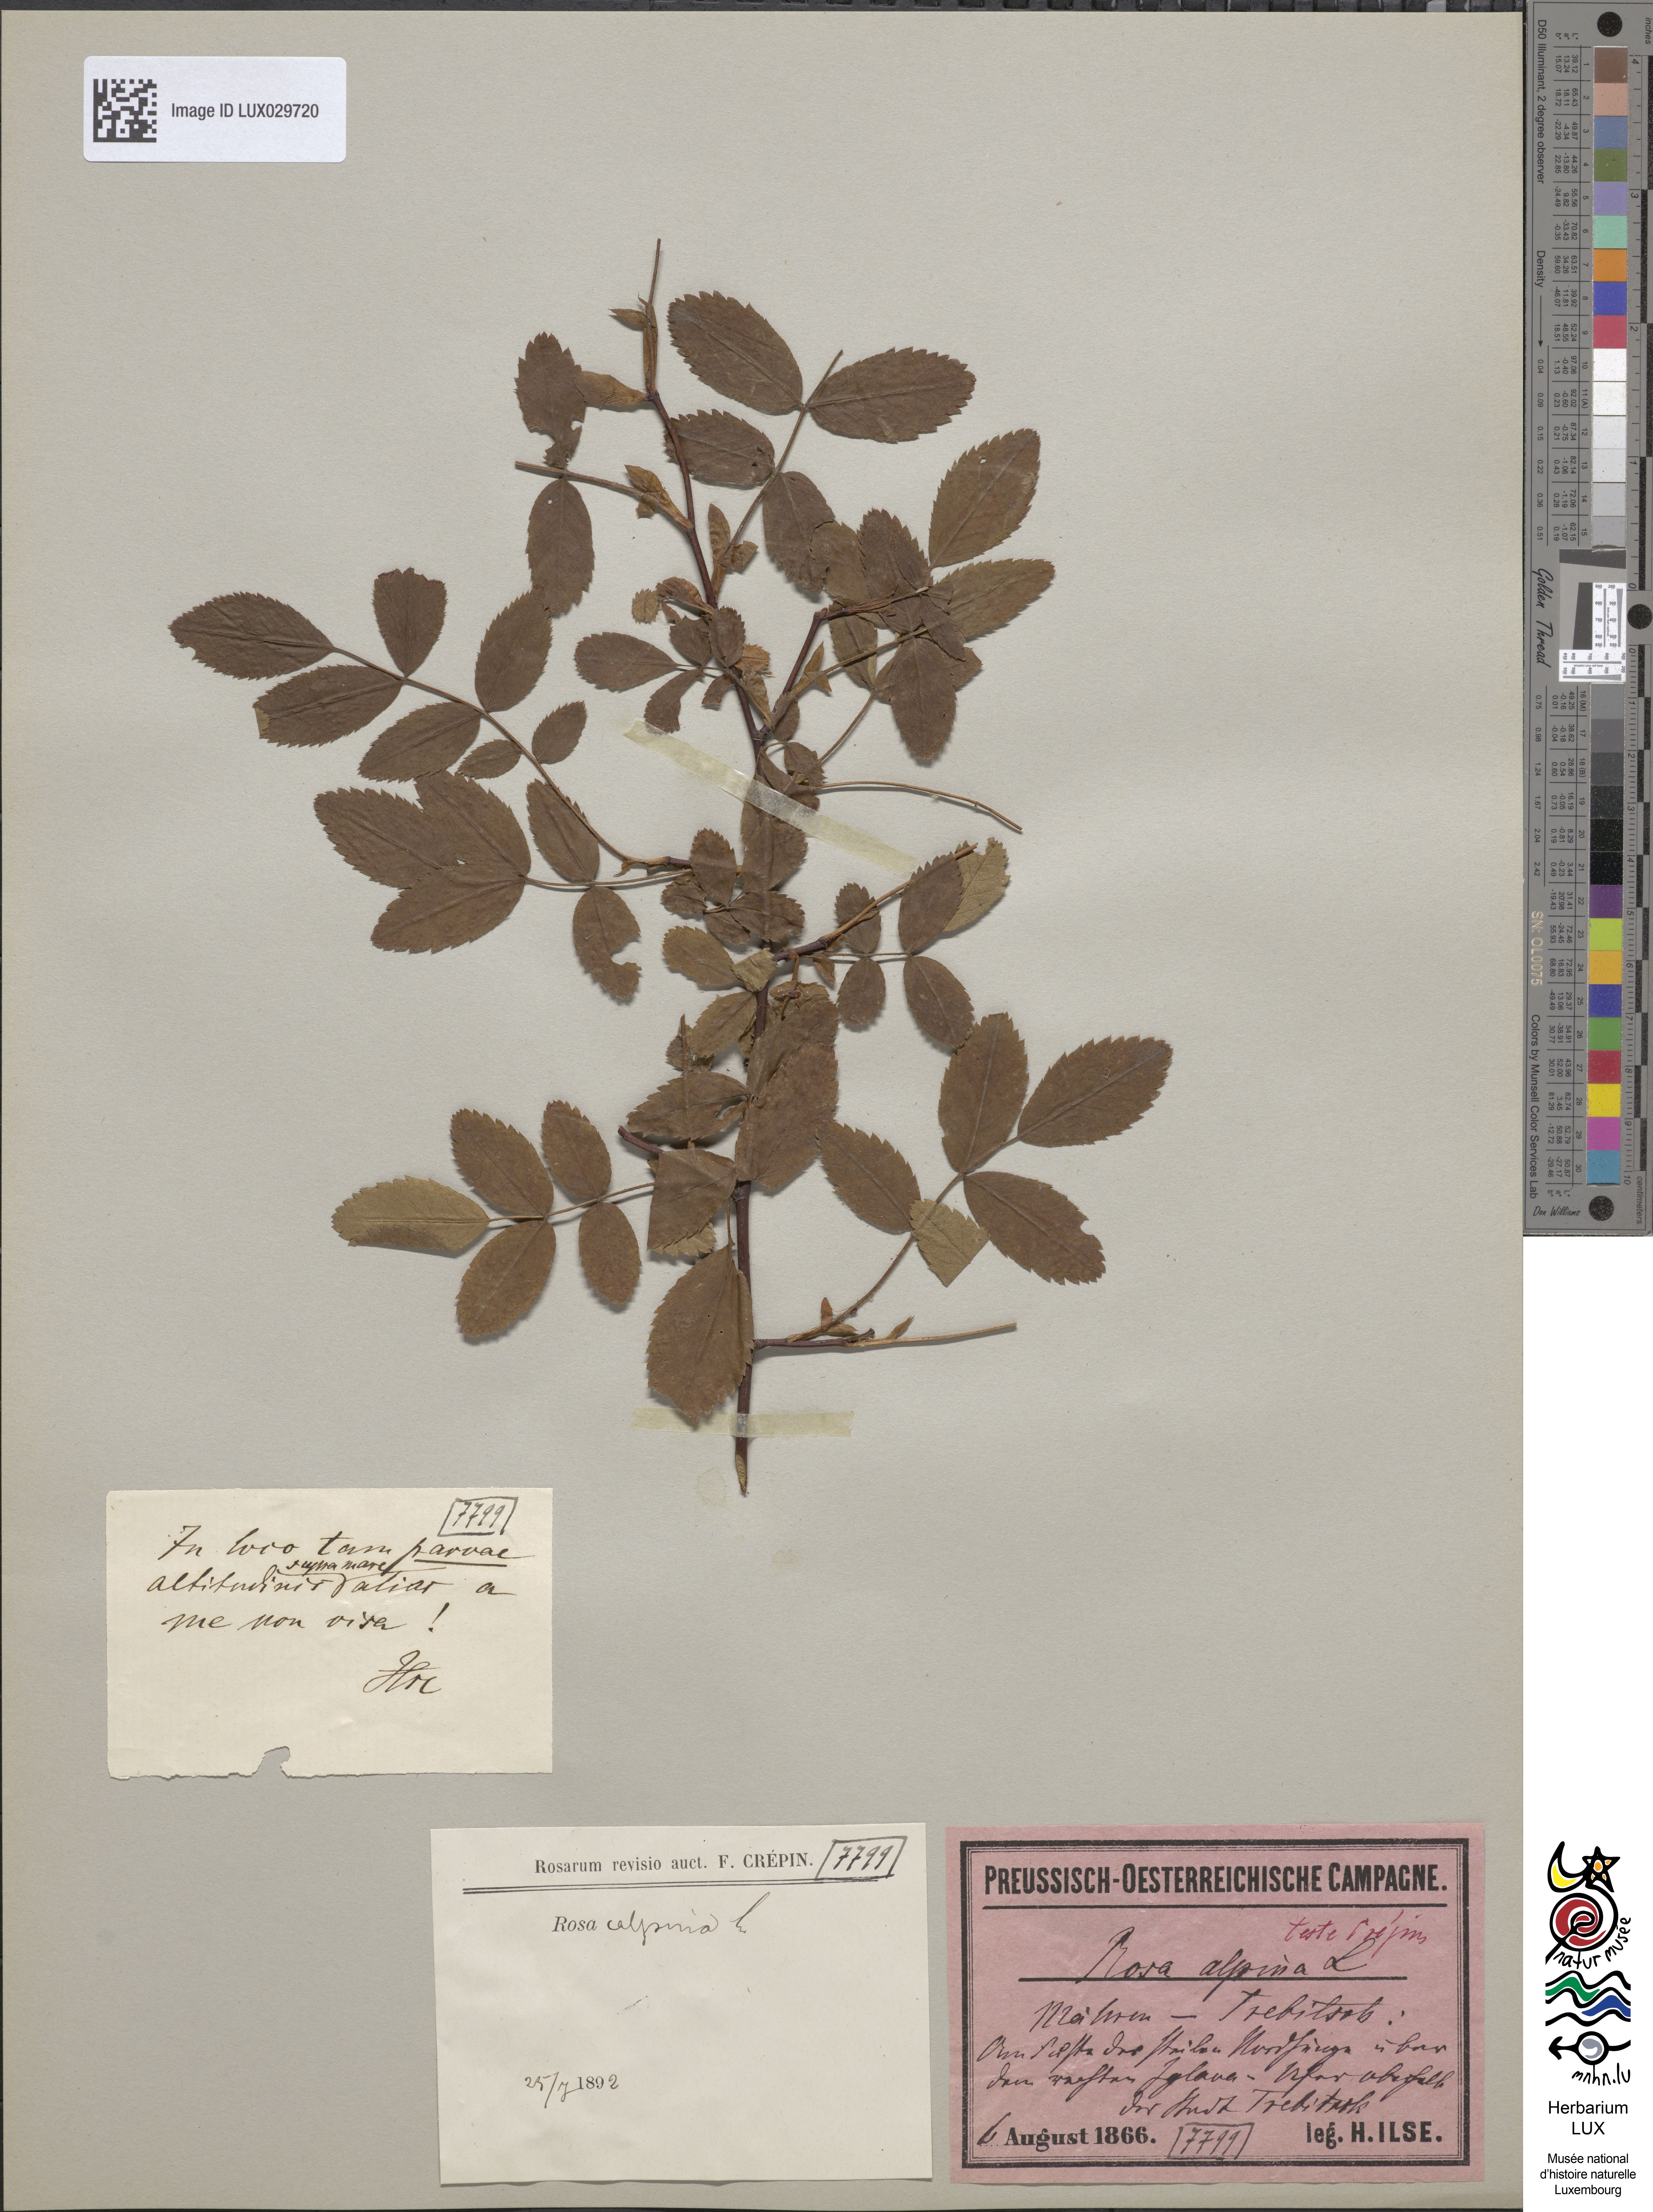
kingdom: Plantae
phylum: Tracheophyta
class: Magnoliopsida
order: Rosales
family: Rosaceae
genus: Rosa
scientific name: Rosa pendulina
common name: Alpine rose
